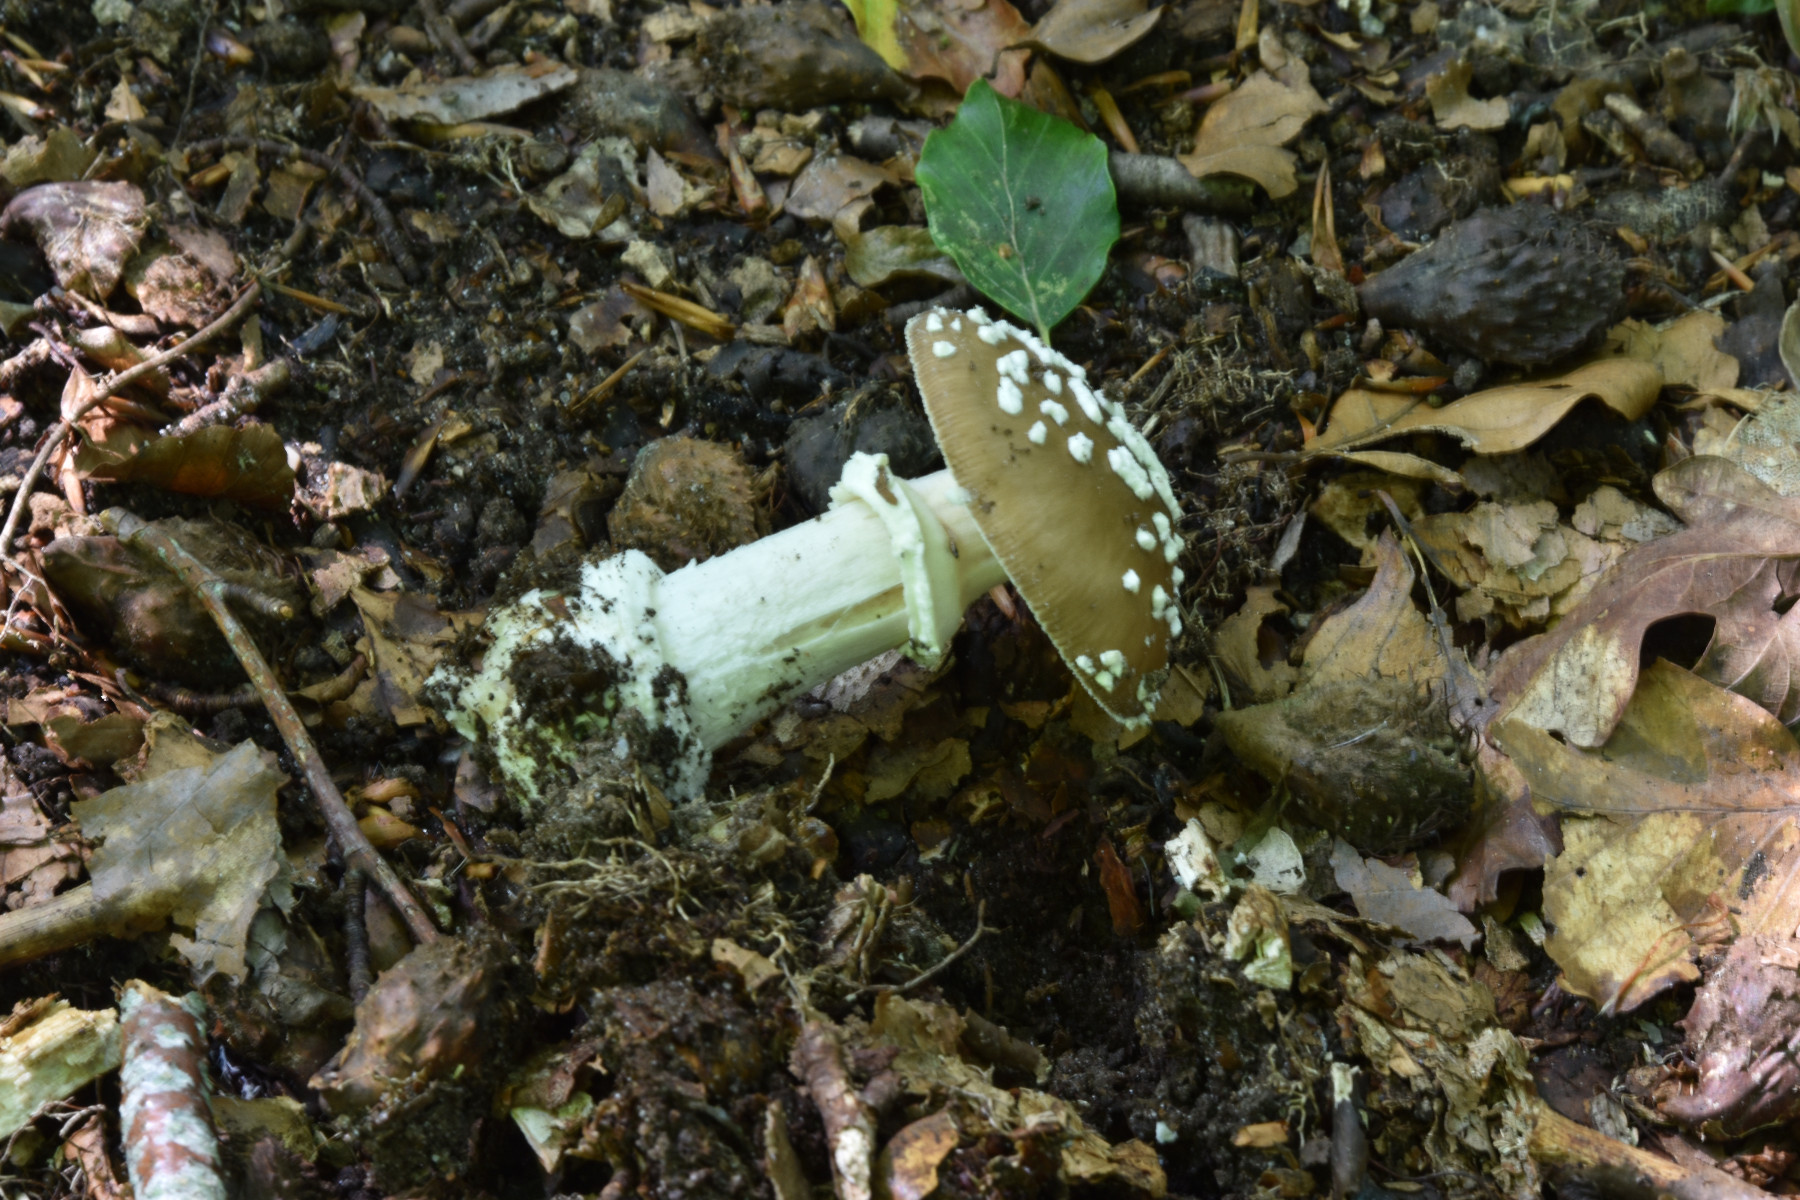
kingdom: Fungi
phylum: Basidiomycota
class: Agaricomycetes
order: Agaricales
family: Amanitaceae
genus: Amanita
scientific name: Amanita pantherina
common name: panter-fluesvamp
